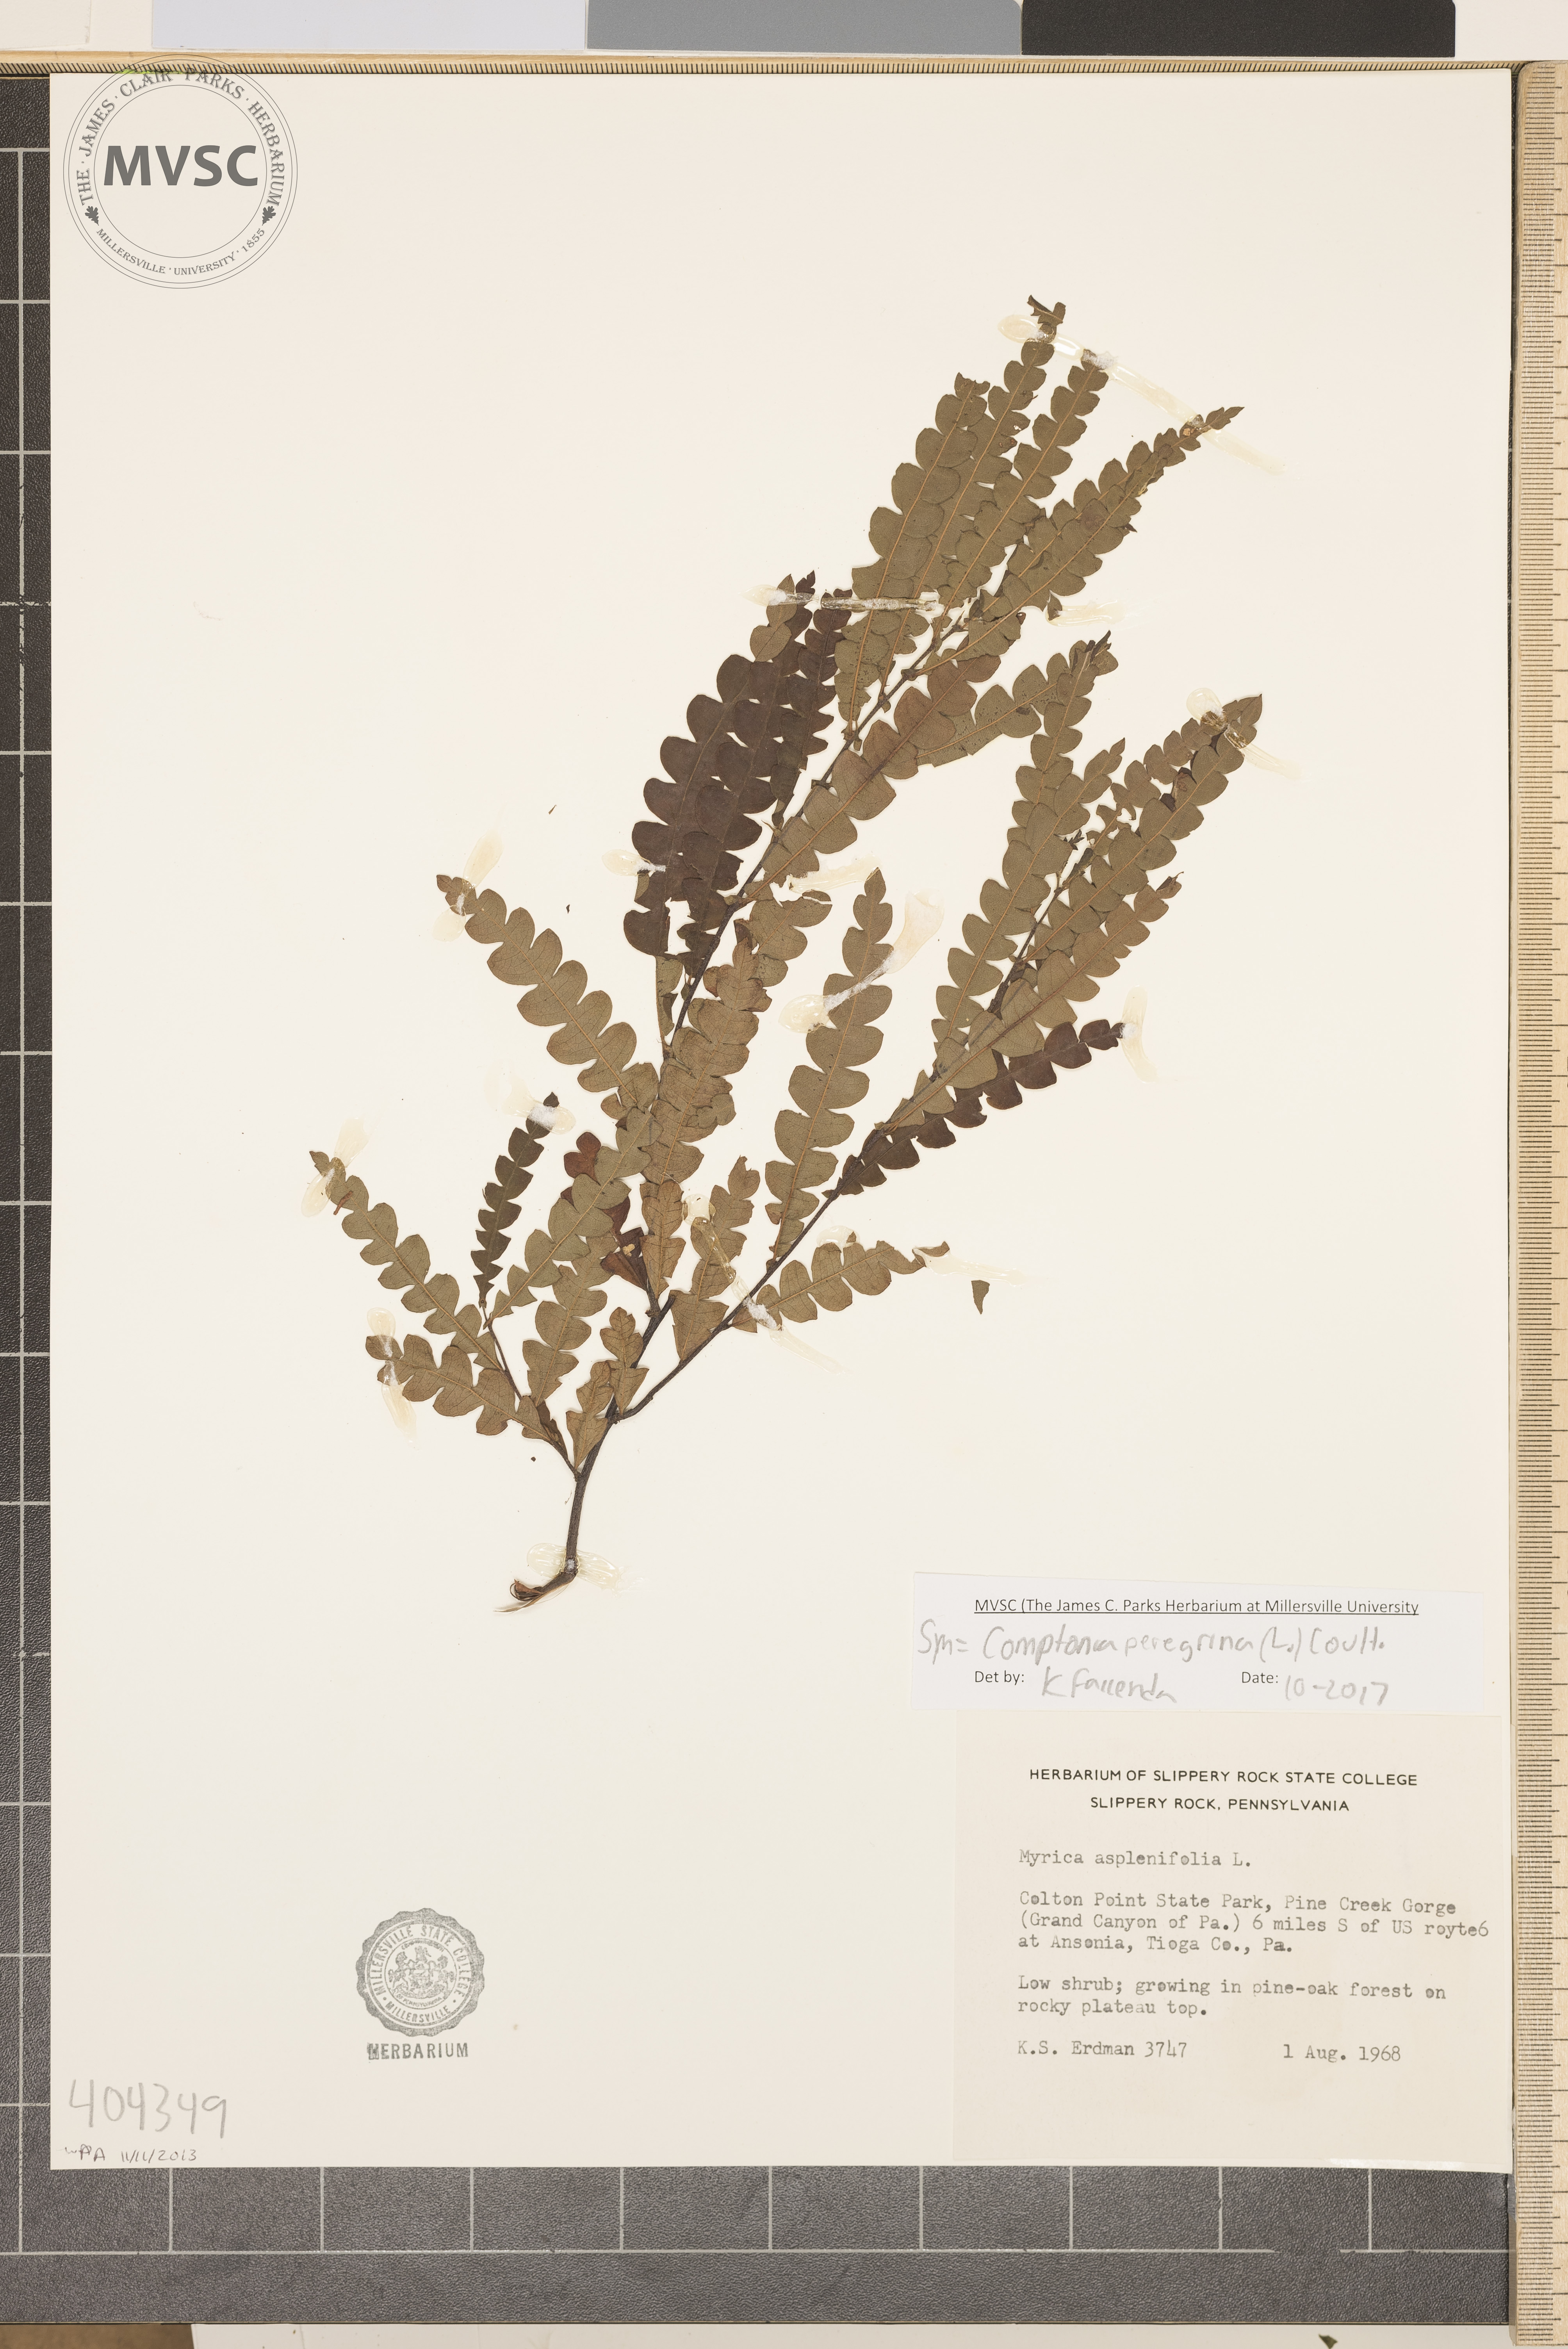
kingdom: Plantae
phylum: Tracheophyta
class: Magnoliopsida
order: Fagales
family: Myricaceae
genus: Comptonia
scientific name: Comptonia peregrina
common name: Sweetfern
